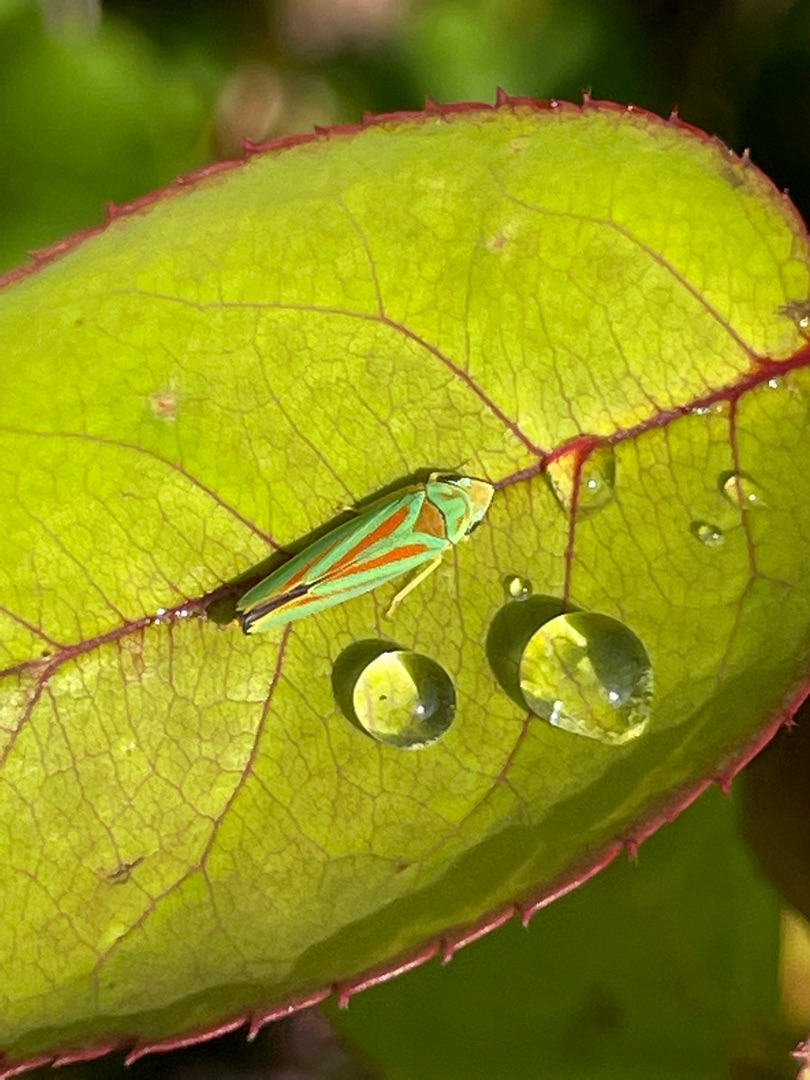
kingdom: Animalia
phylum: Arthropoda
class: Insecta
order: Hemiptera
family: Cicadellidae
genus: Graphocephala
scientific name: Graphocephala fennahi
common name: Rododendroncikade
